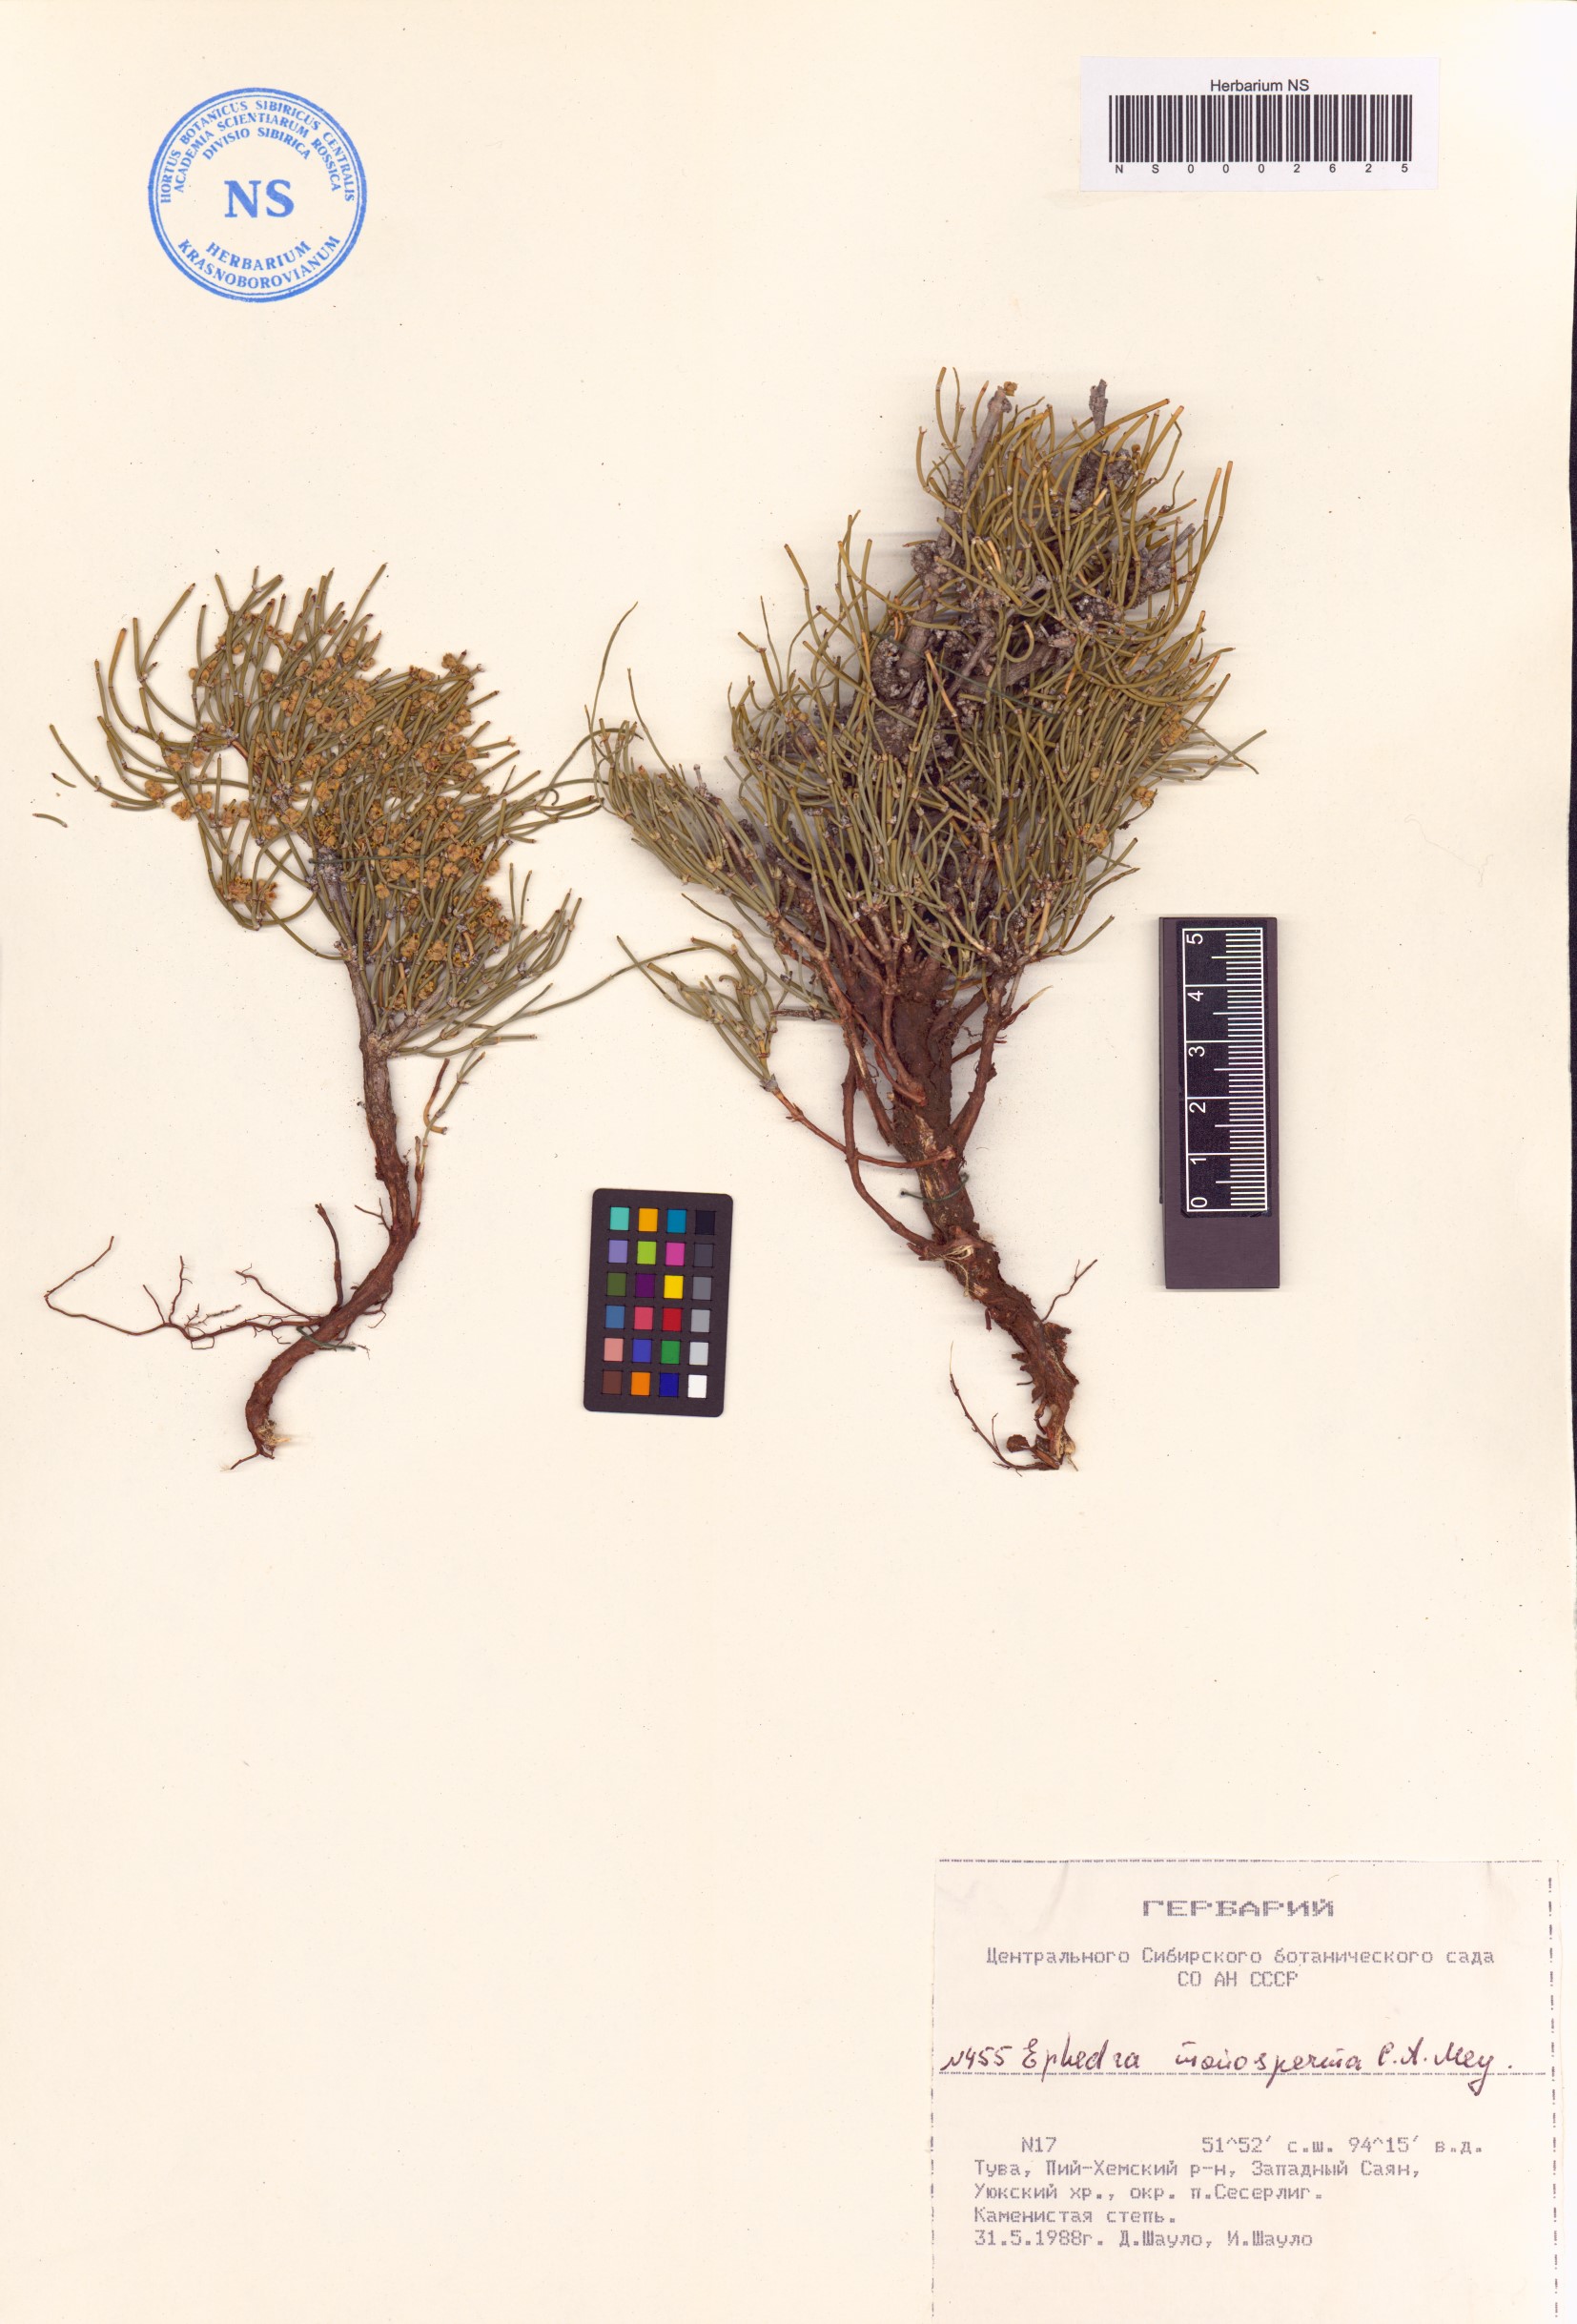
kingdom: Plantae
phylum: Tracheophyta
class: Gnetopsida
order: Ephedrales
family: Ephedraceae
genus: Ephedra
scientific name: Ephedra monosperma
